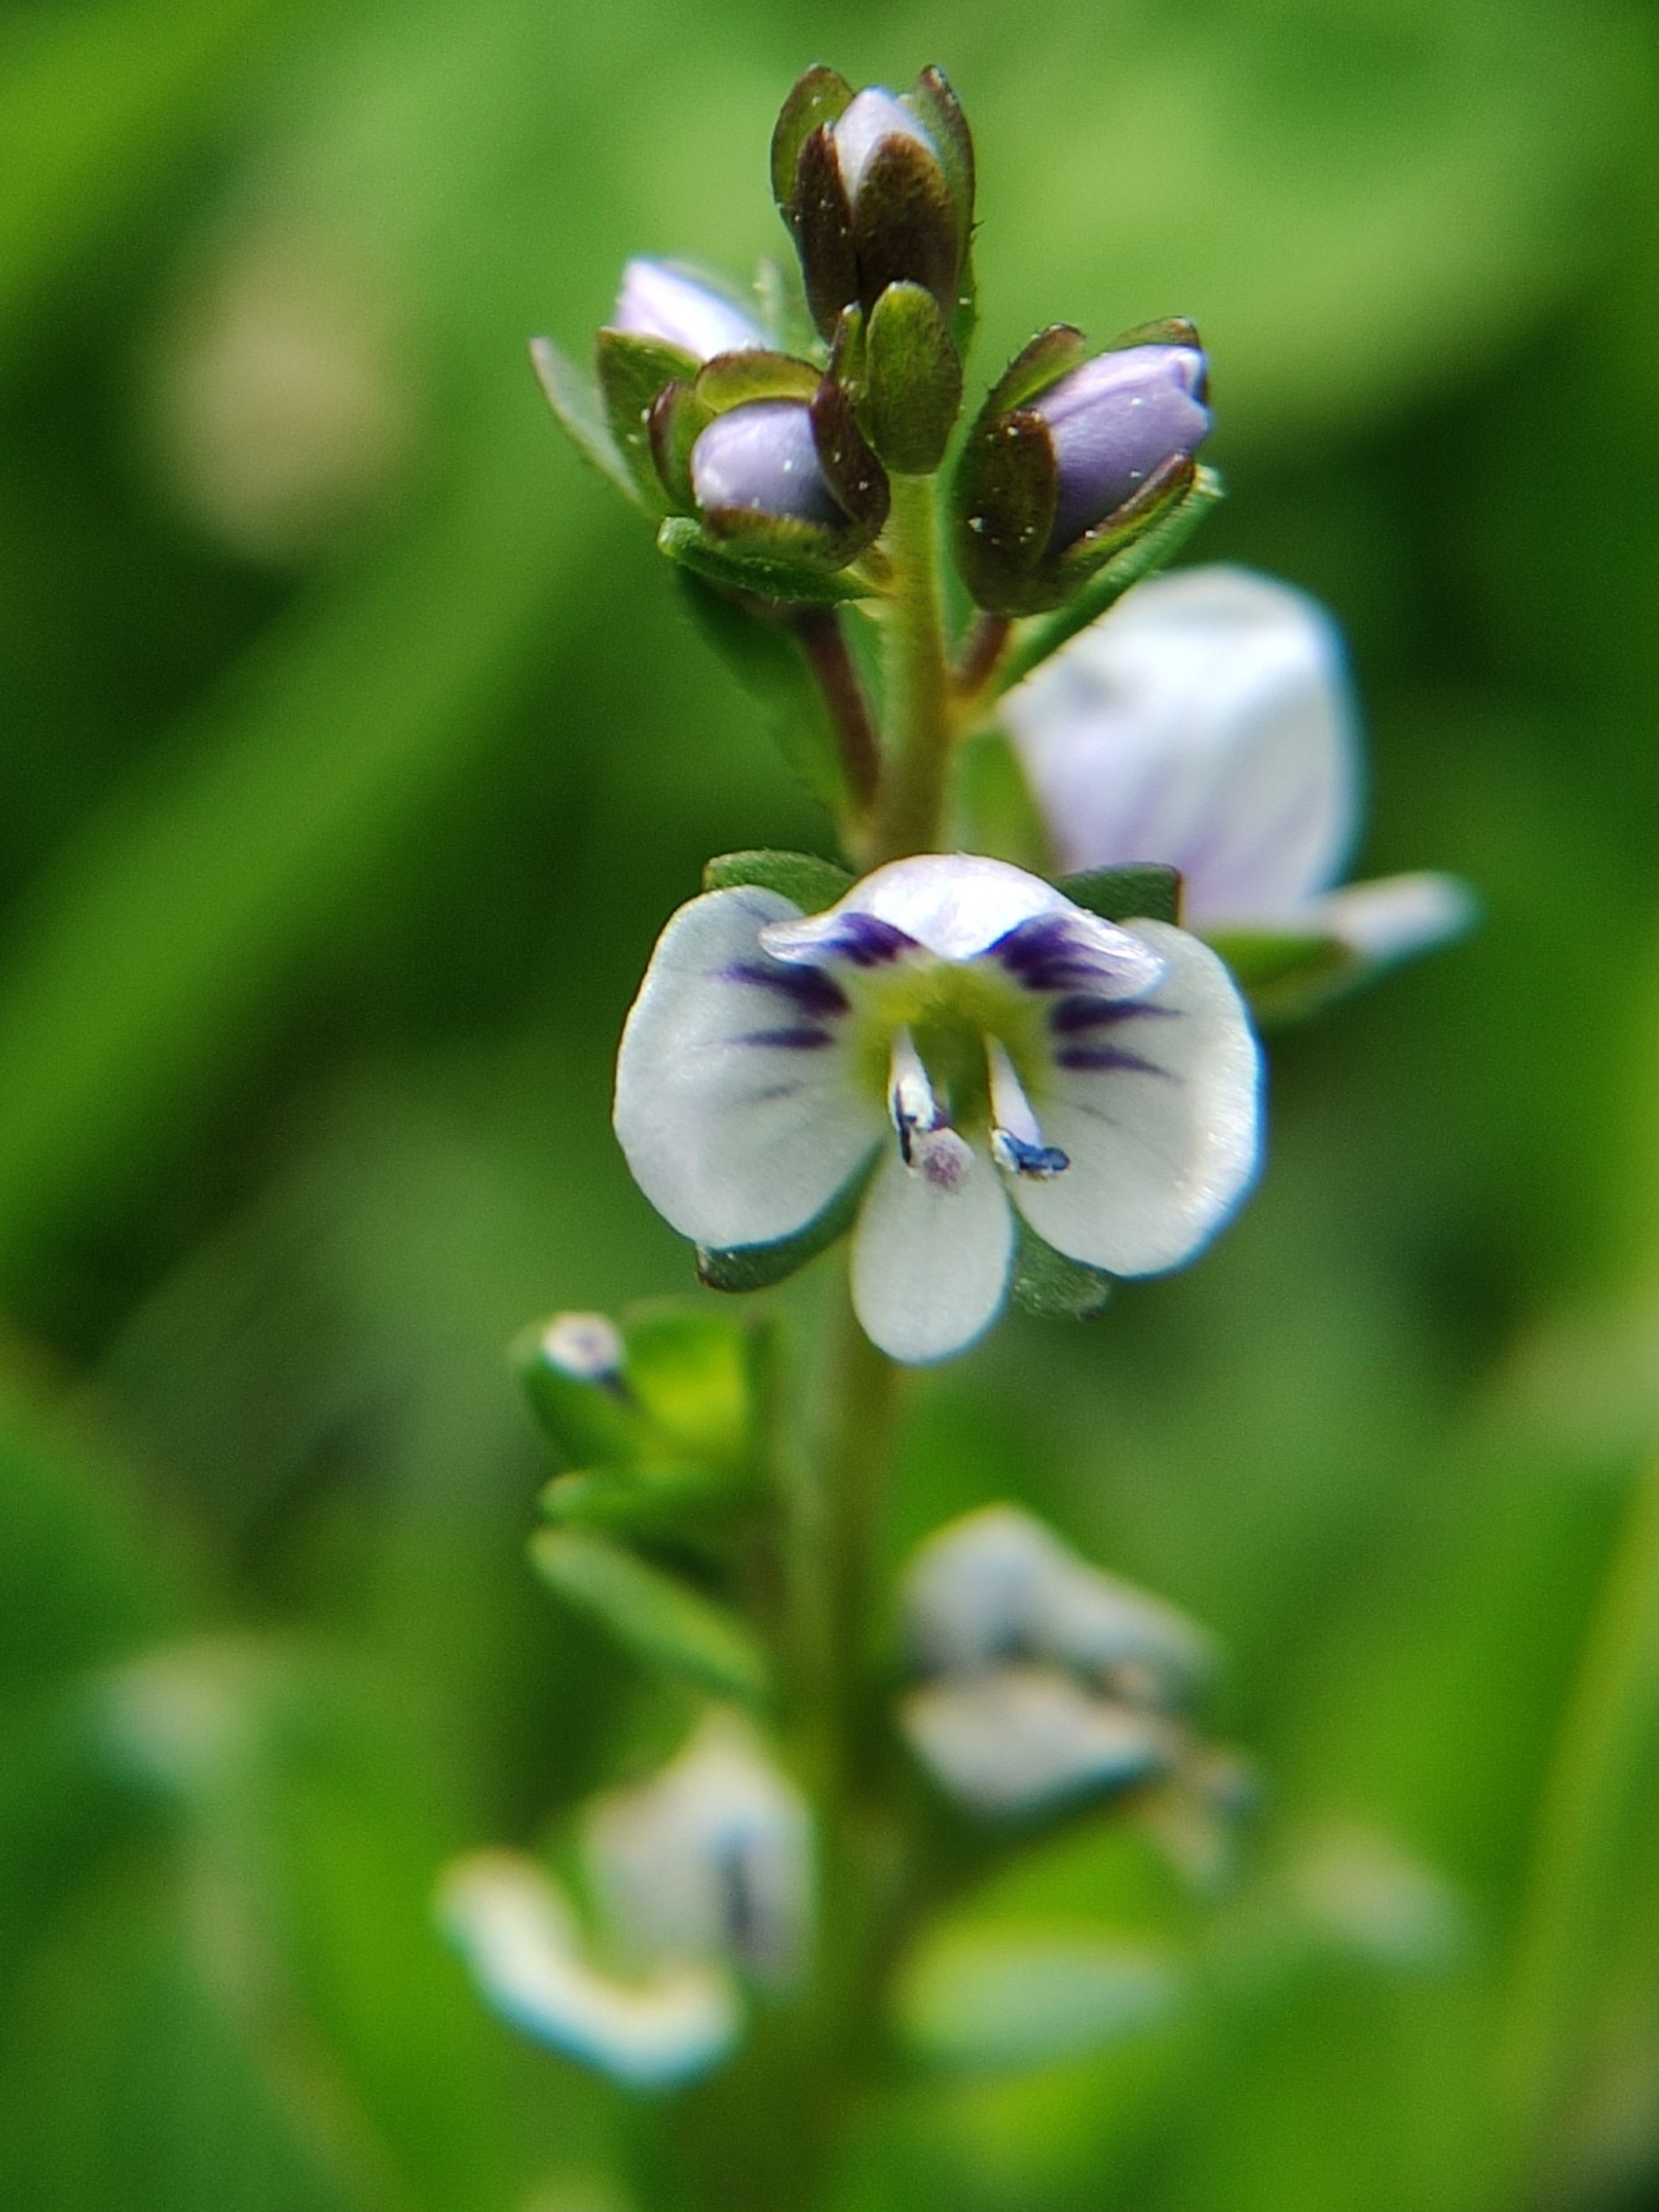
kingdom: Plantae
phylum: Tracheophyta
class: Magnoliopsida
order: Lamiales
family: Plantaginaceae
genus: Veronica
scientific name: Veronica serpyllifolia
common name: Glat ærenpris
